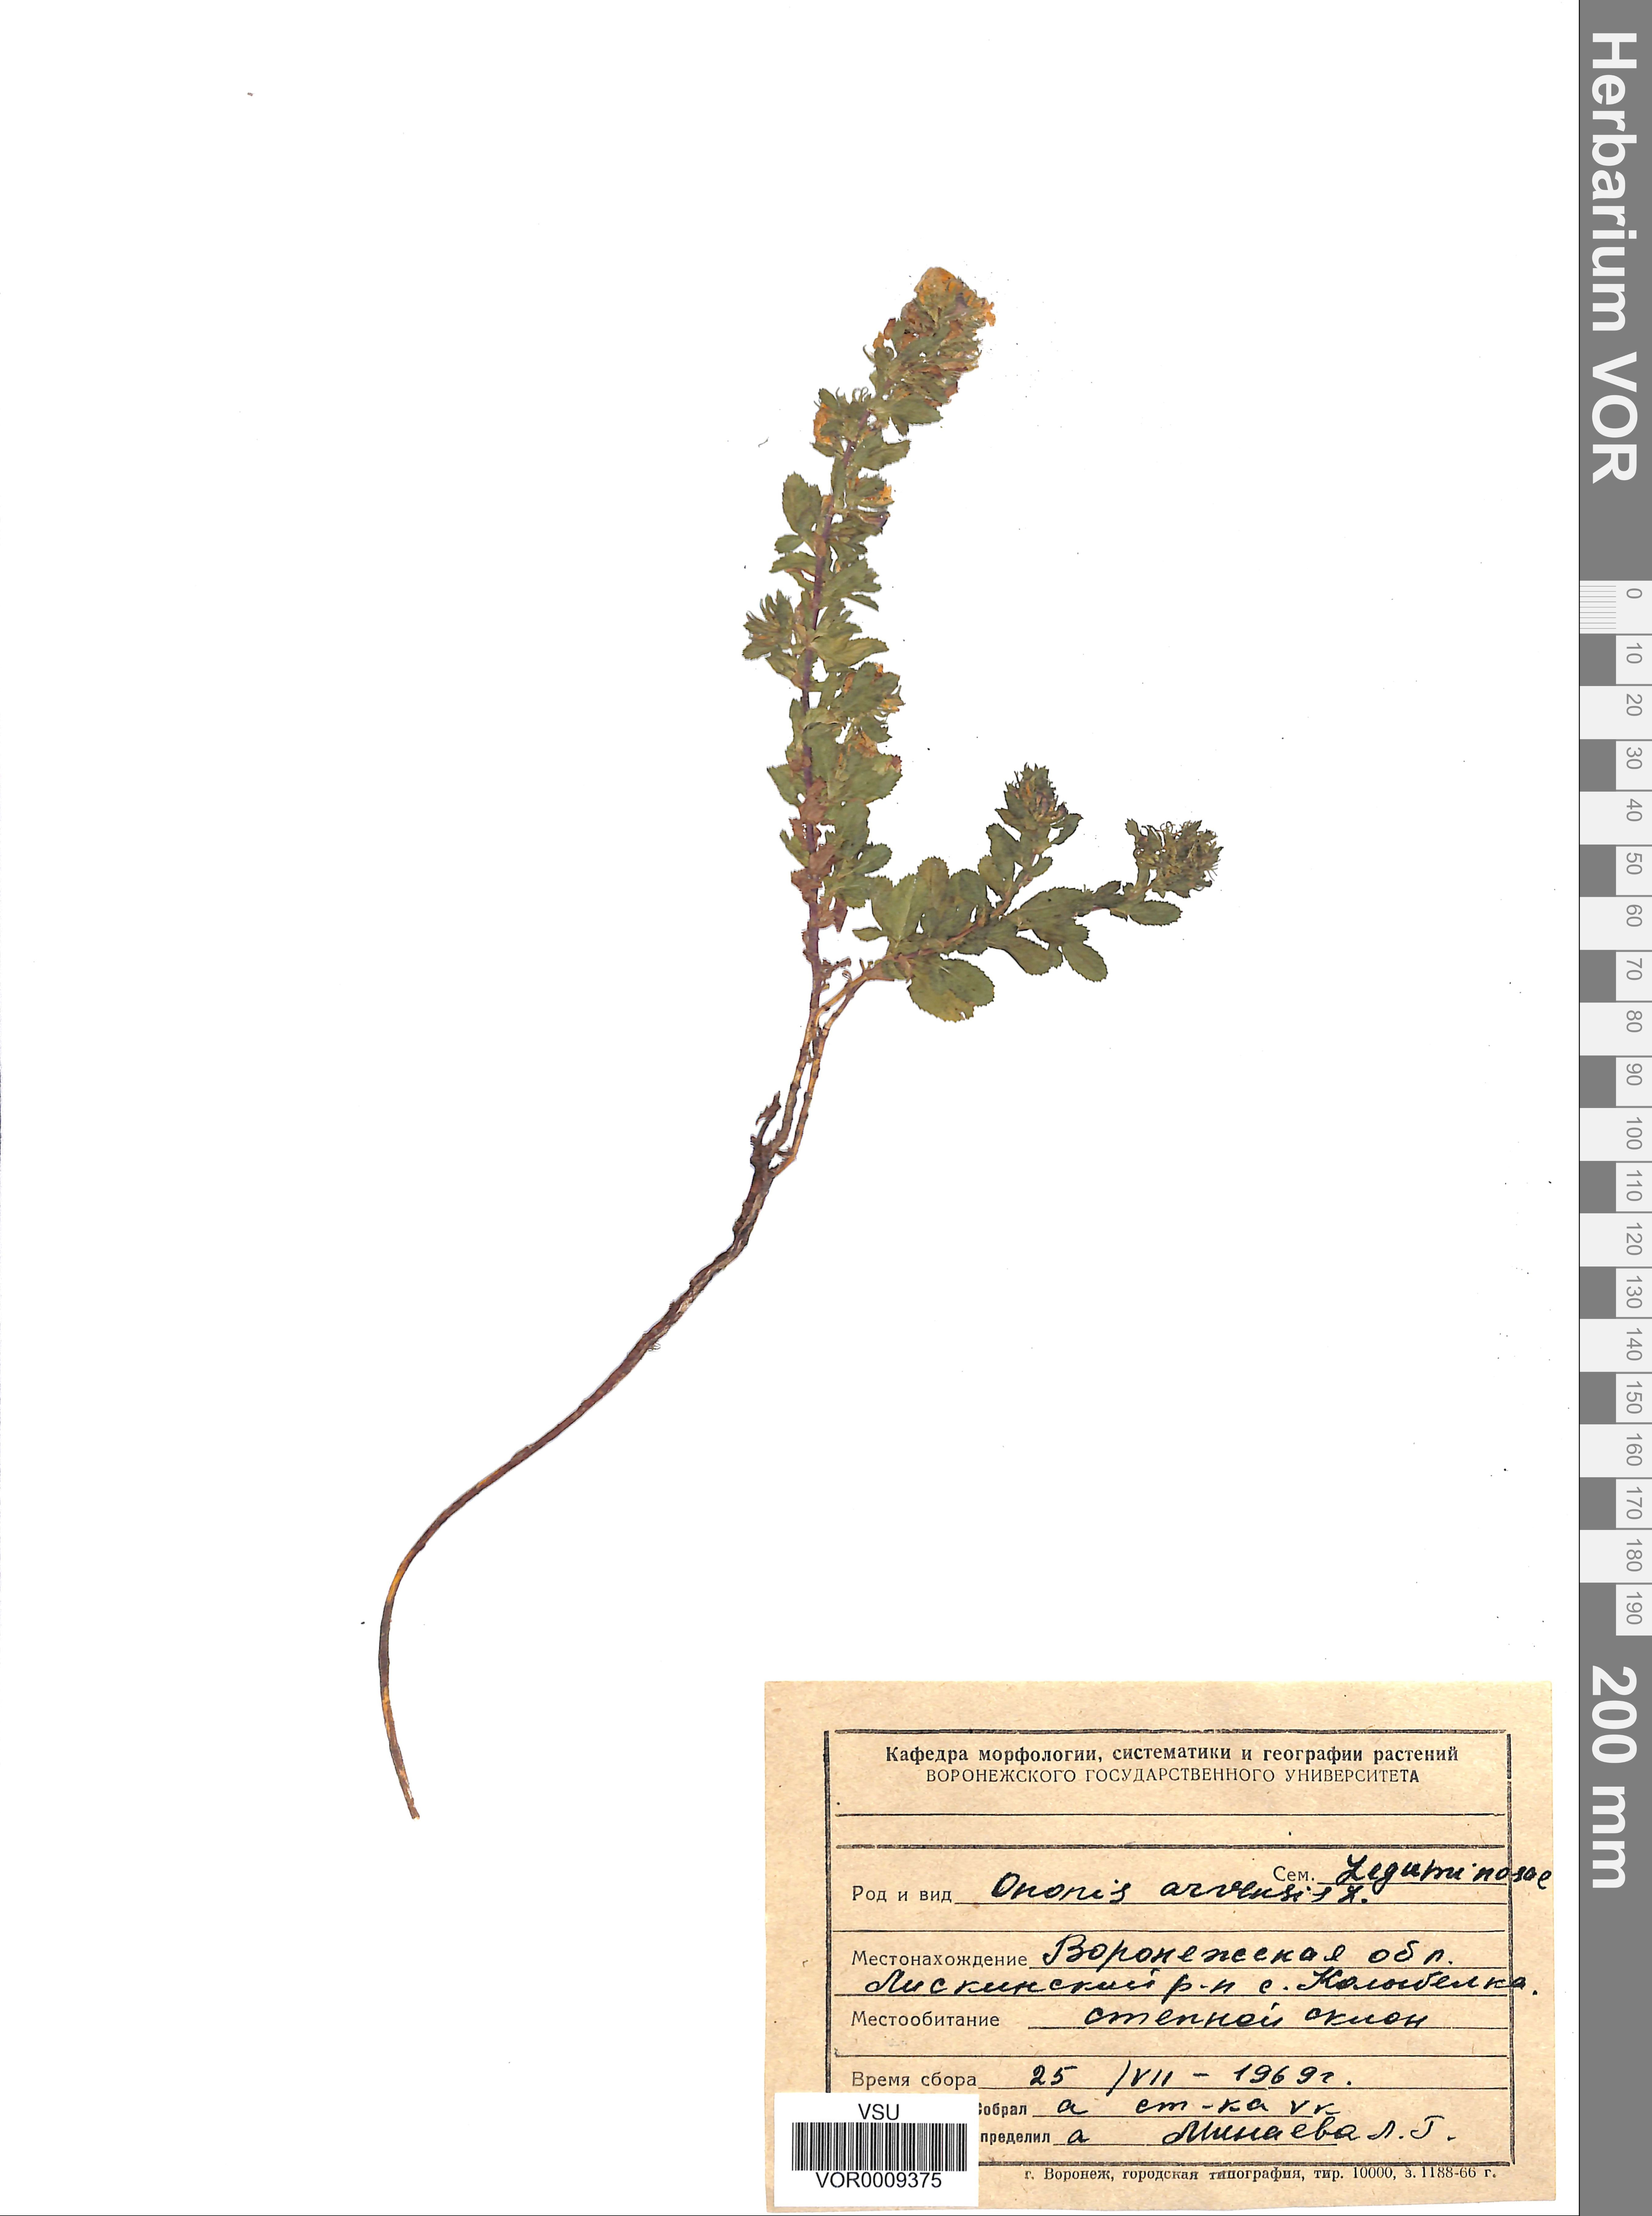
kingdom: Plantae
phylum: Tracheophyta
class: Magnoliopsida
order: Fabales
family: Fabaceae
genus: Ononis
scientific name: Ononis arvensis
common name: Field restharrow
